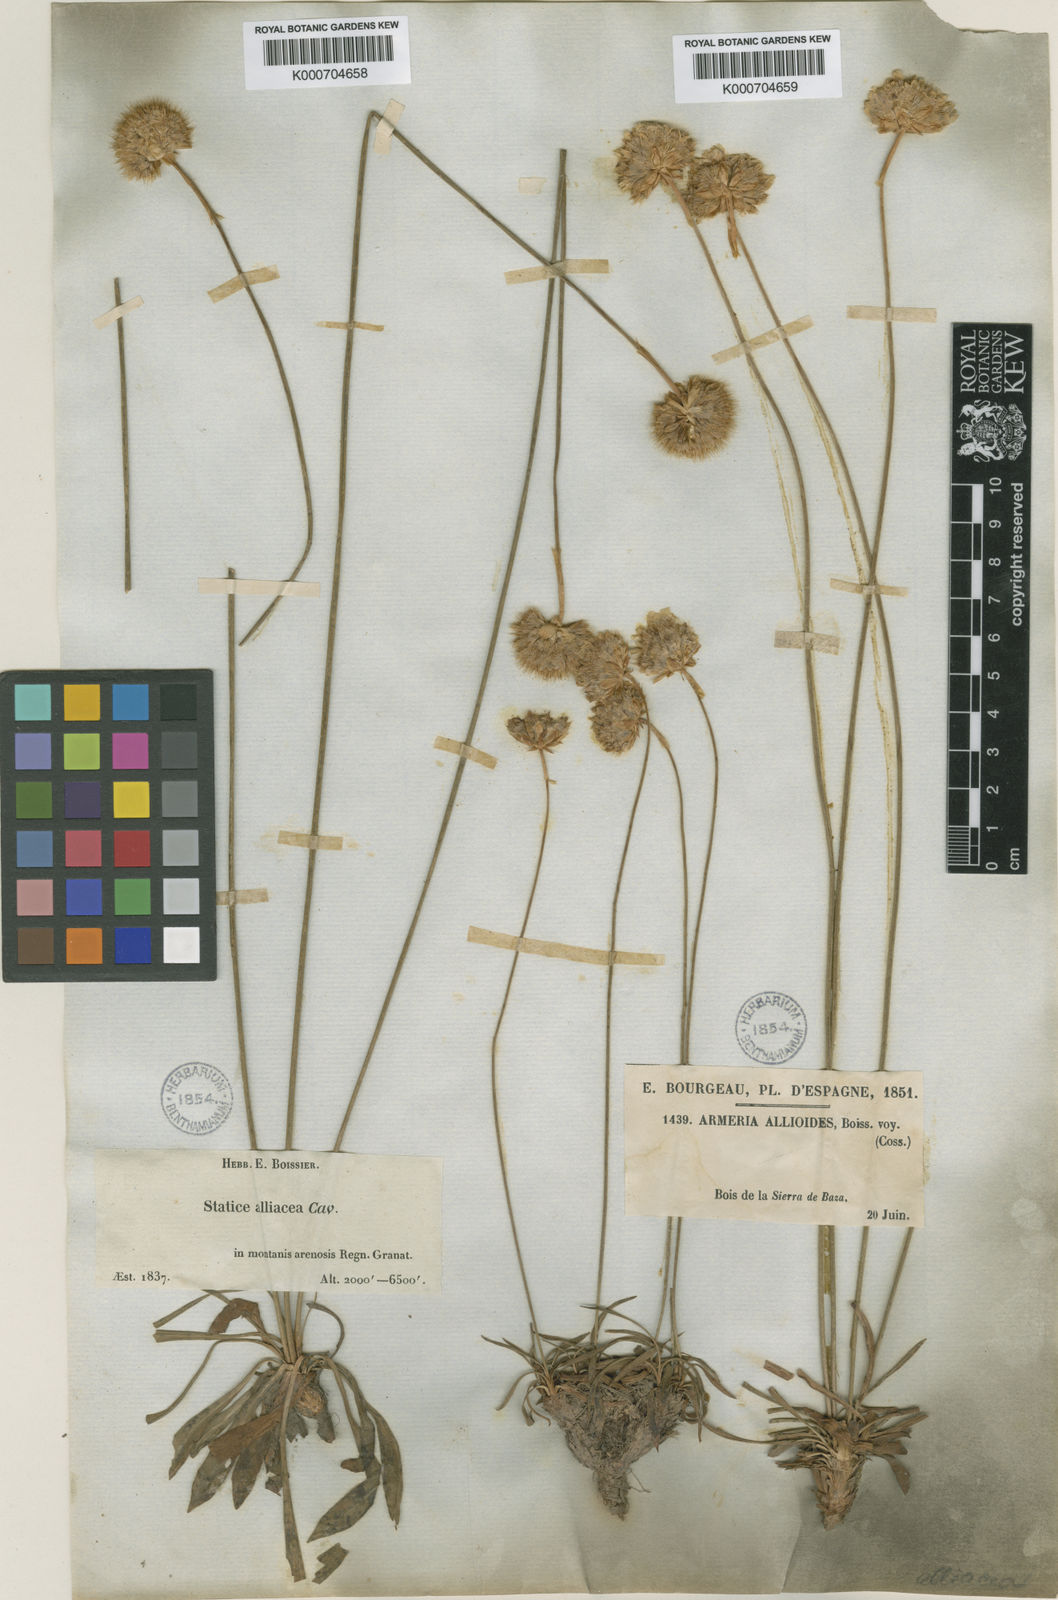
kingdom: Plantae
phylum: Tracheophyta
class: Magnoliopsida
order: Caryophyllales
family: Plumbaginaceae
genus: Armeria
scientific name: Armeria alliacea
